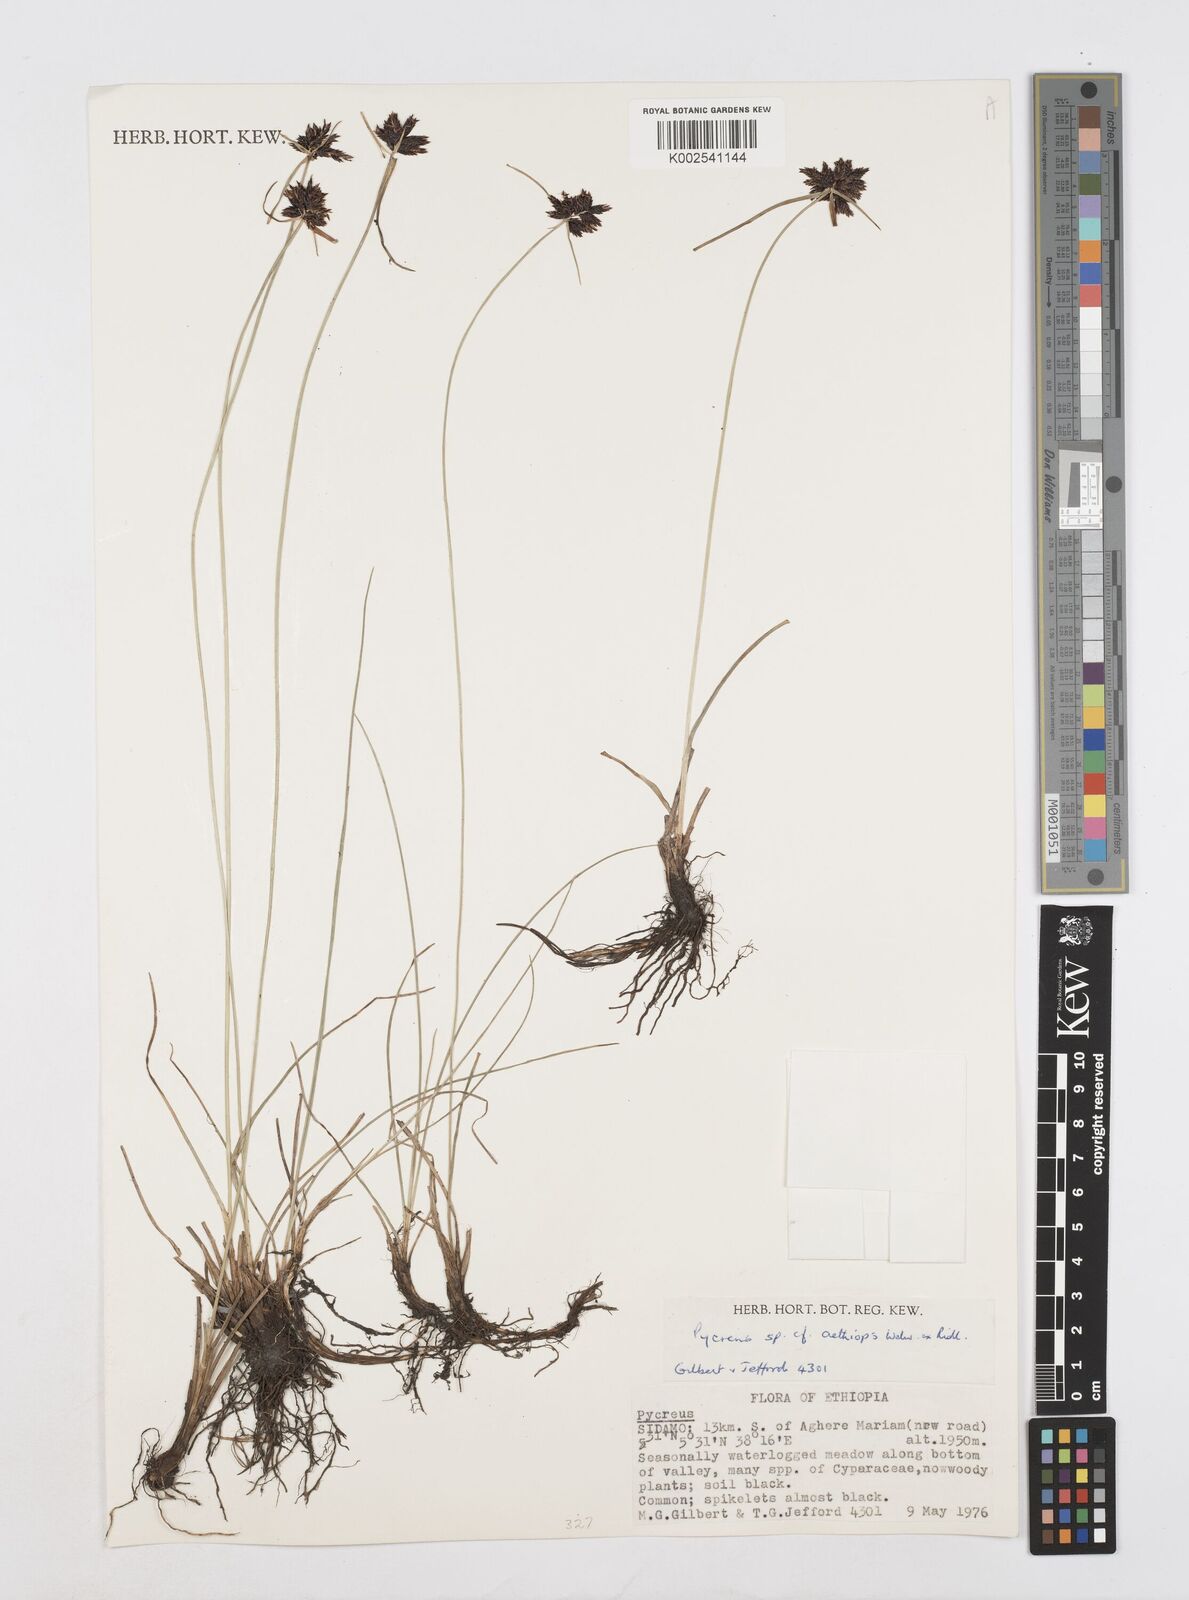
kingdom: Plantae
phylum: Tracheophyta
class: Liliopsida
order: Poales
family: Cyperaceae
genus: Cyperus
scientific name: Cyperus aethiops
